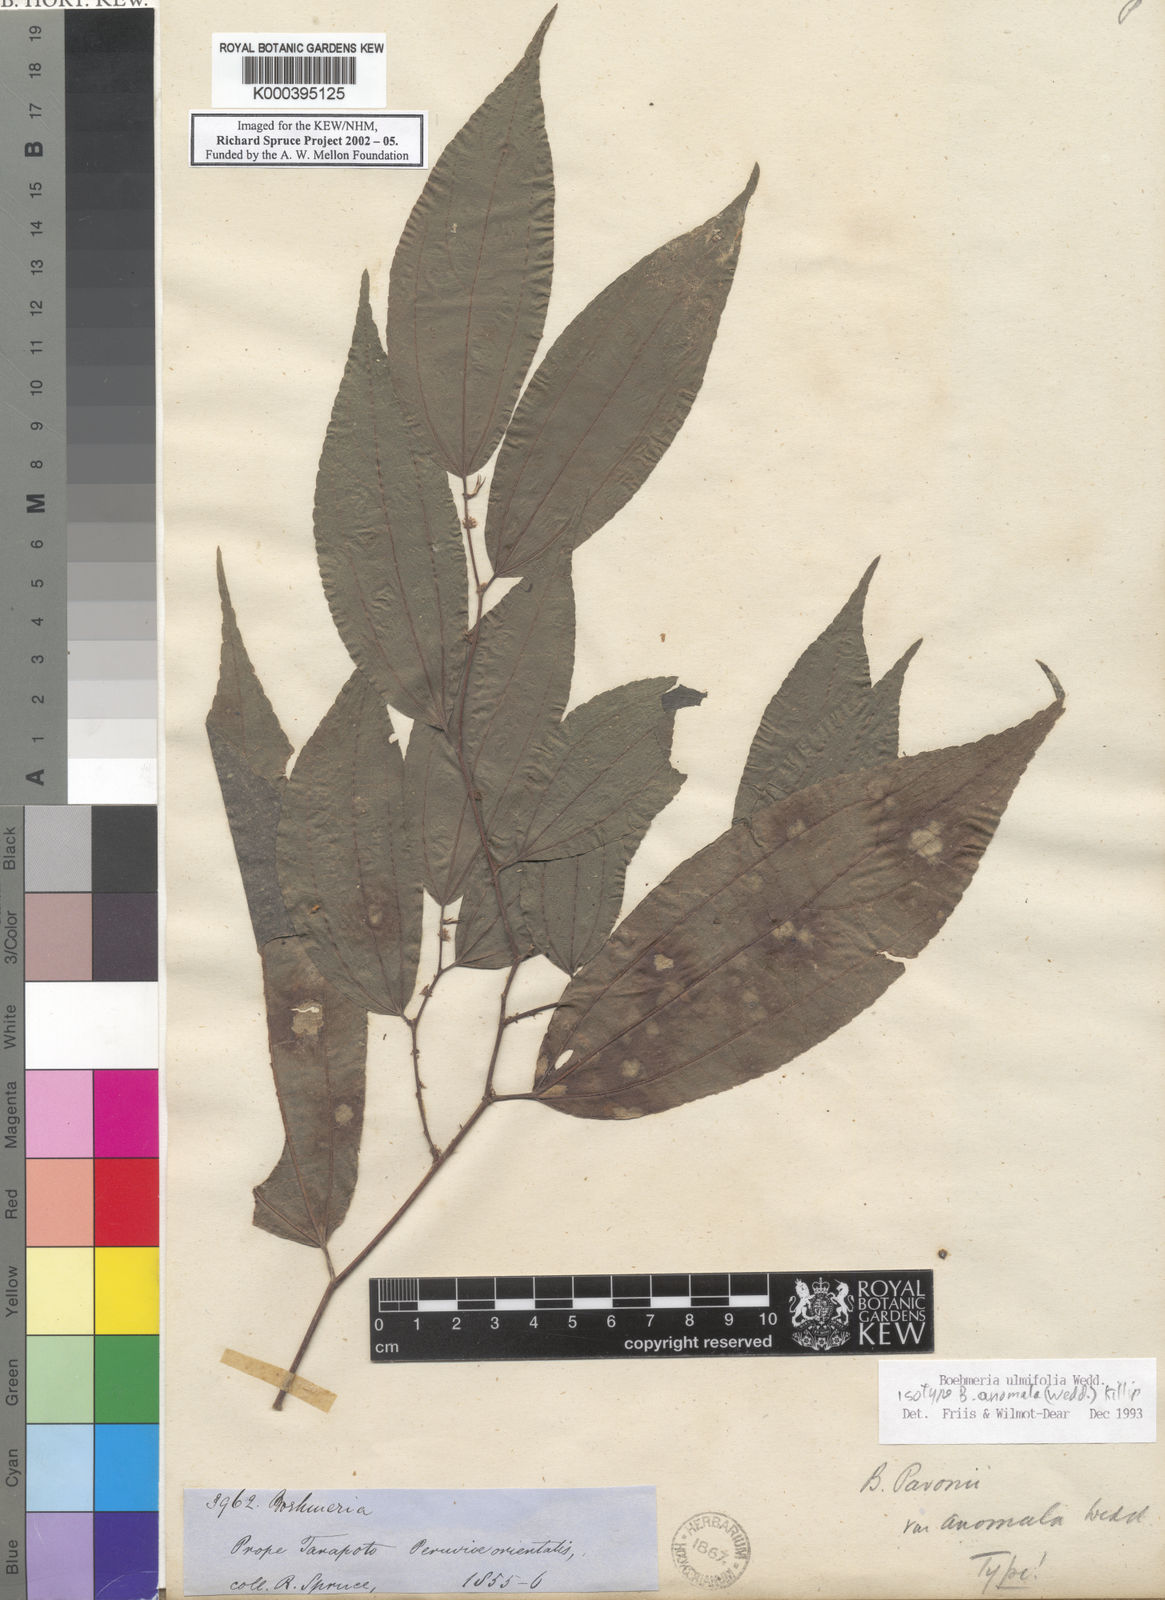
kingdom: Plantae
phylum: Tracheophyta
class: Magnoliopsida
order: Rosales
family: Urticaceae
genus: Boehmeria
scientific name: Boehmeria ulmifolia
